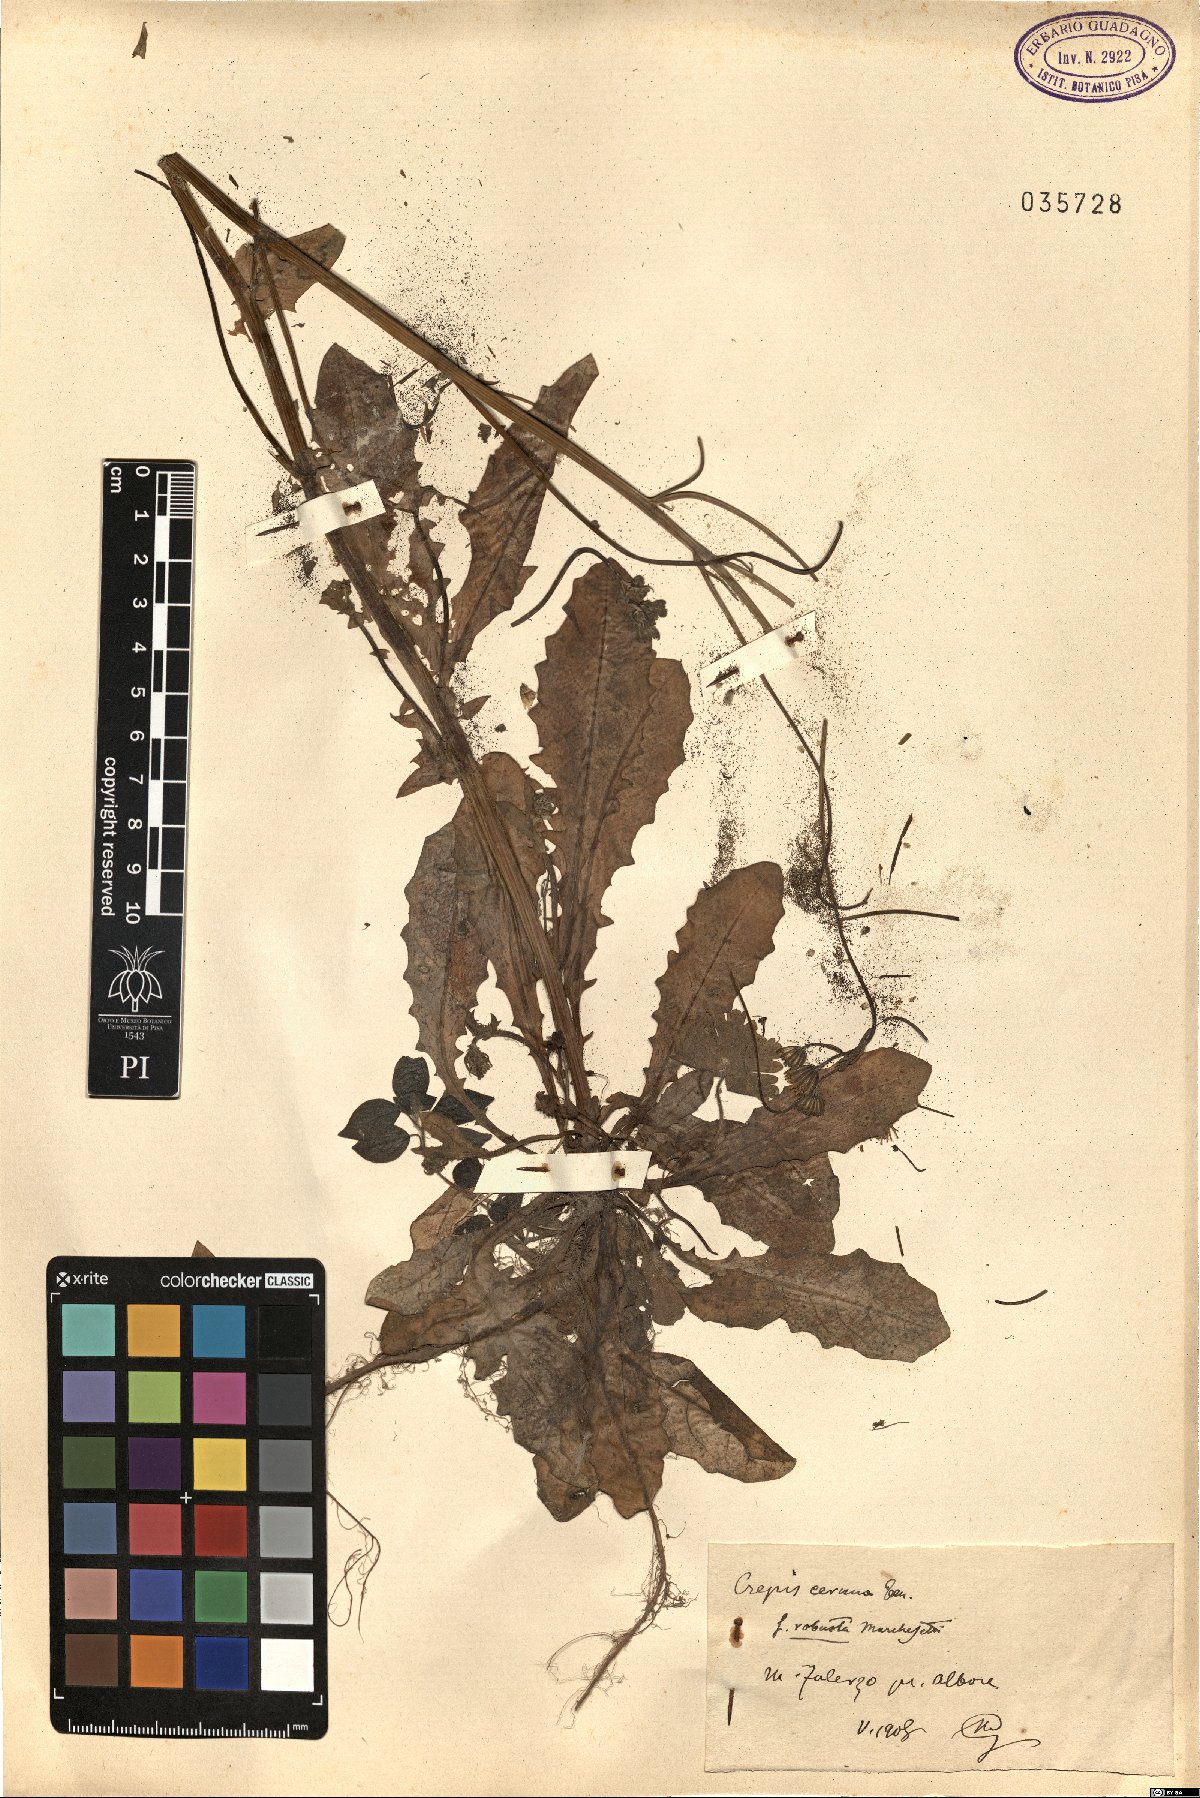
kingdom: Plantae
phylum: Tracheophyta
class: Magnoliopsida
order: Asterales
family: Asteraceae
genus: Crepis
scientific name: Crepis neglecta
